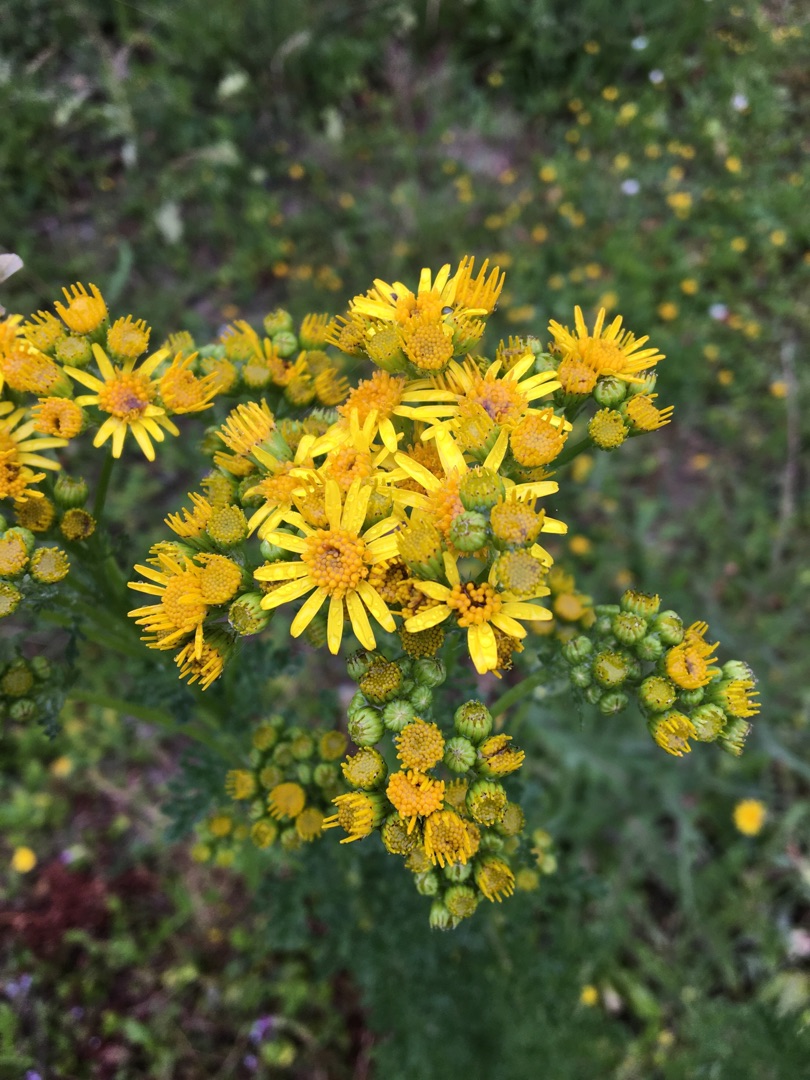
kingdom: Plantae
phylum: Tracheophyta
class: Magnoliopsida
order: Asterales
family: Asteraceae
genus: Jacobaea
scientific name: Jacobaea vulgaris
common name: Eng-brandbæger
